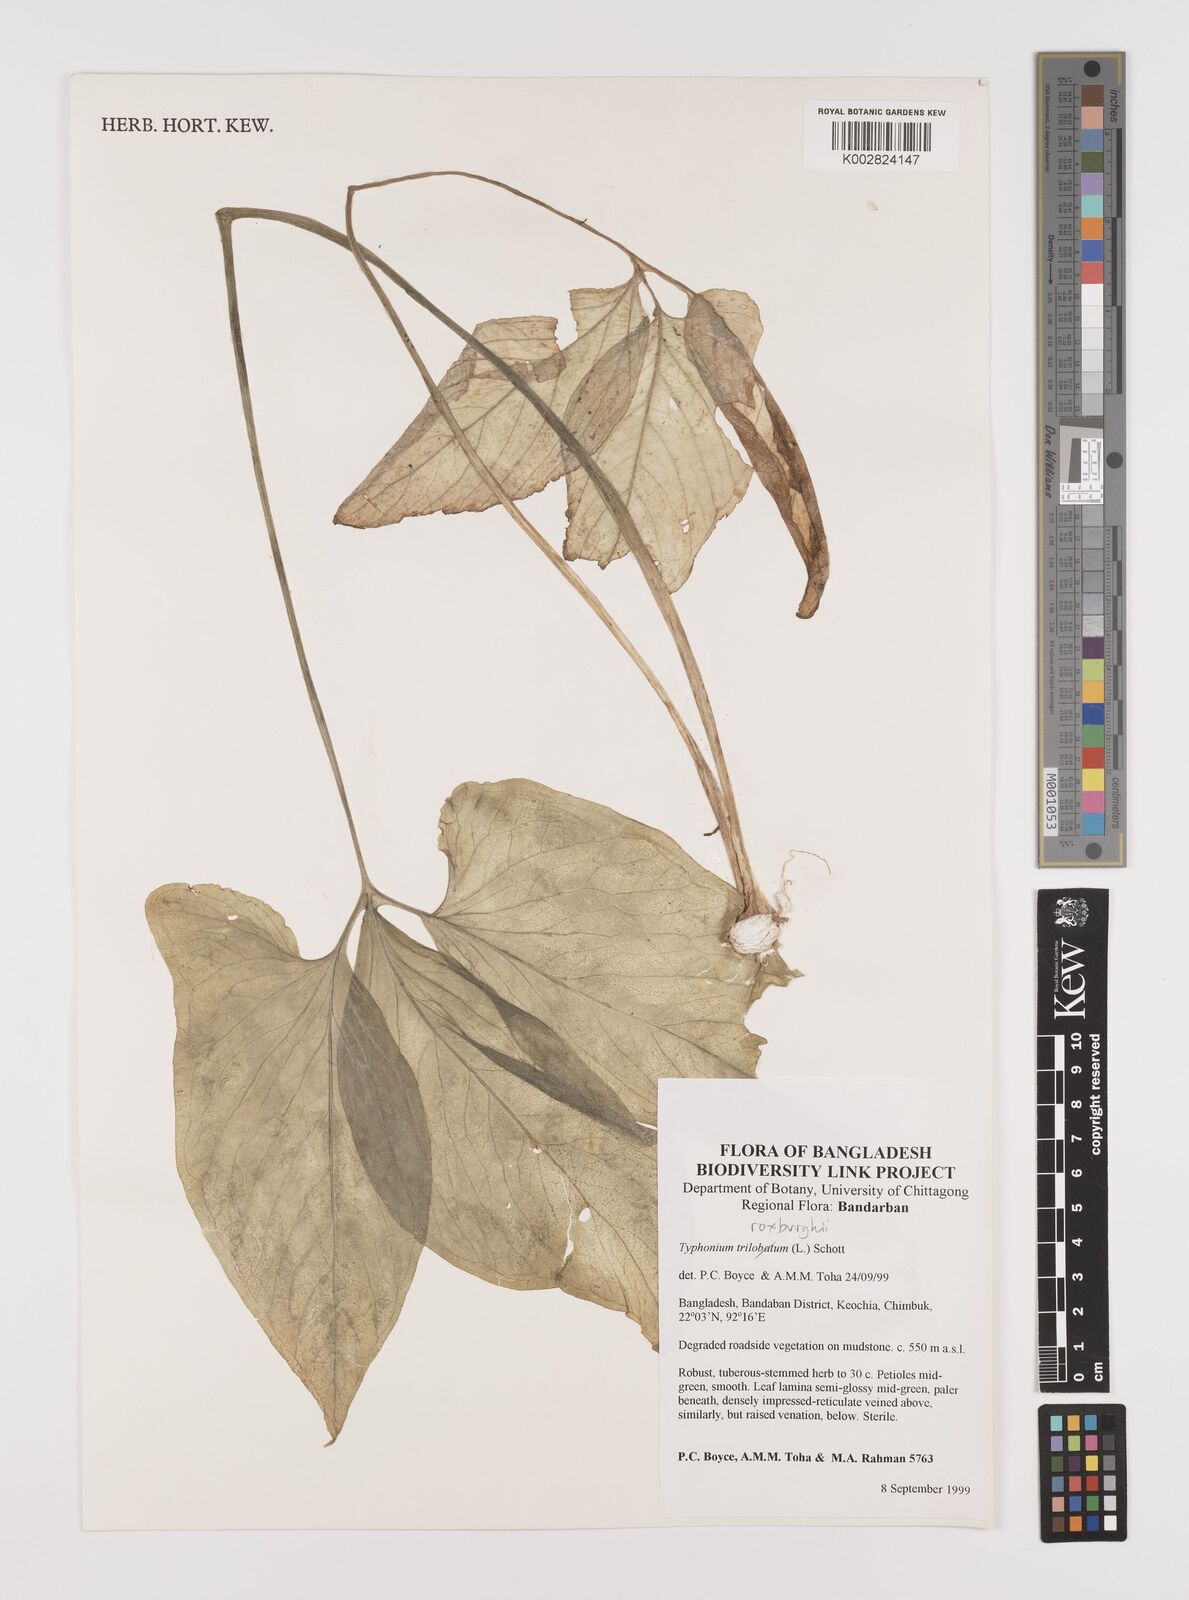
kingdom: Plantae
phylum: Tracheophyta
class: Liliopsida
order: Alismatales
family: Araceae
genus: Typhonium
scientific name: Typhonium roxburghii
